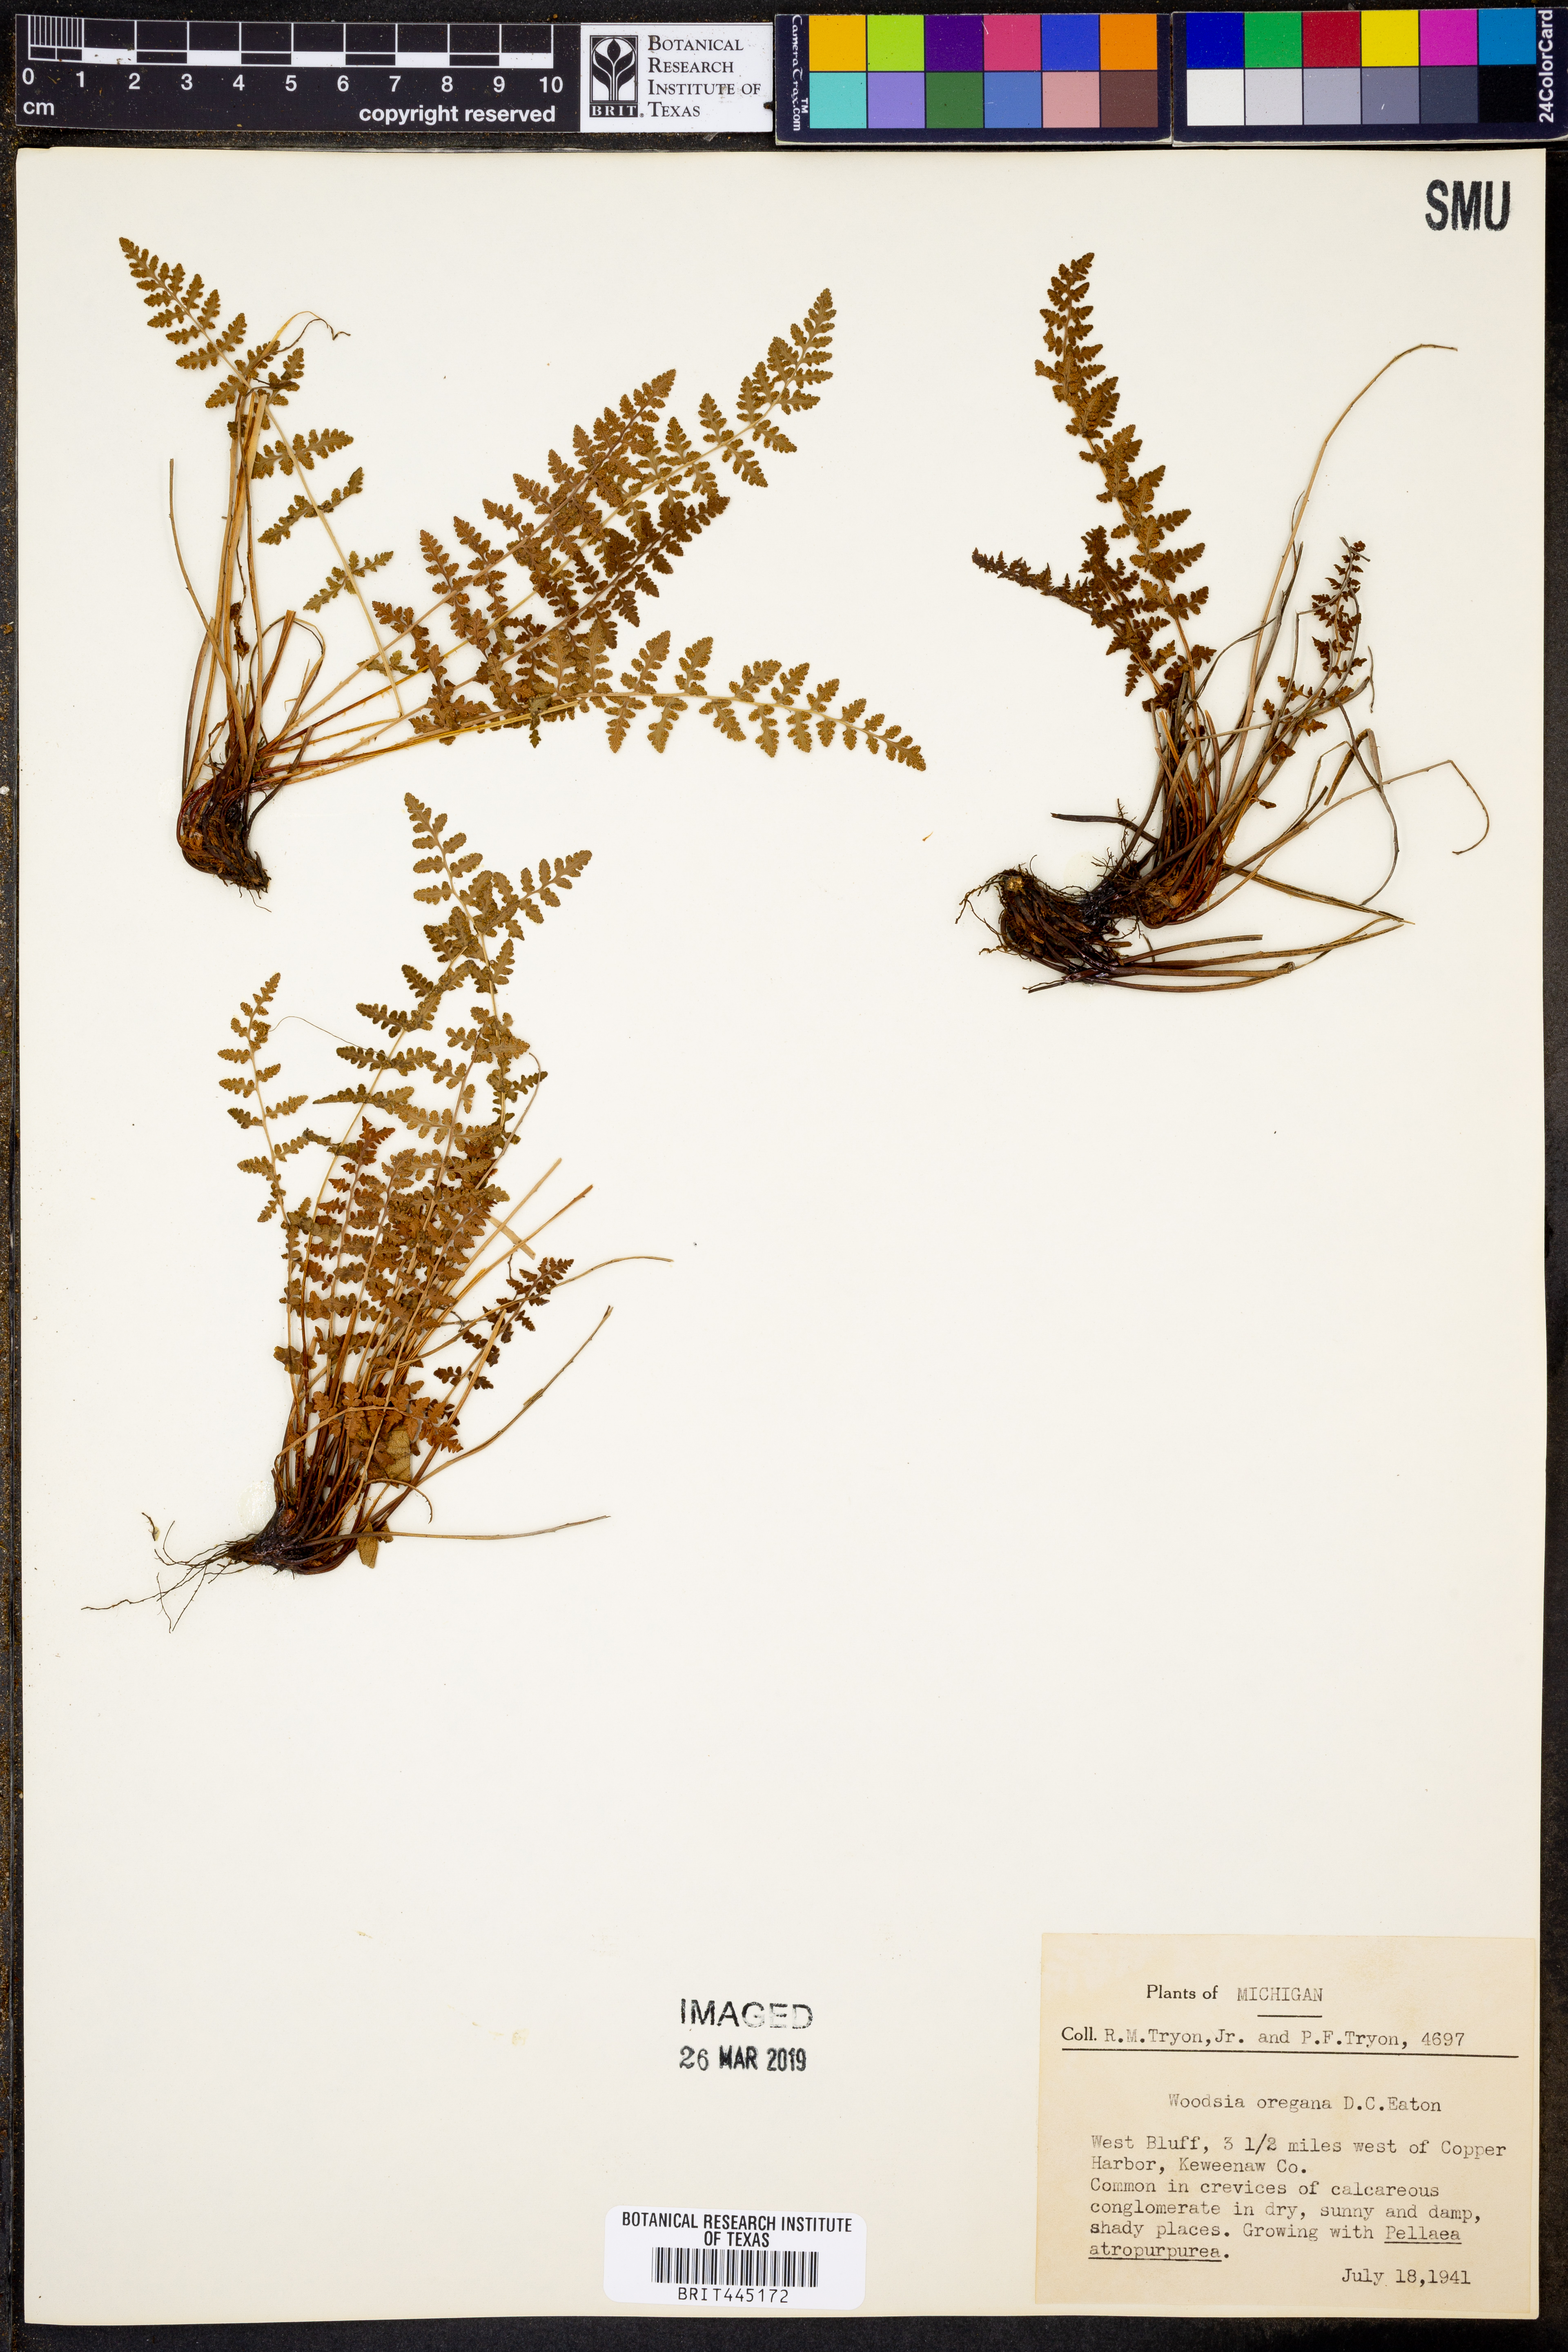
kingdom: Plantae
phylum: Tracheophyta
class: Polypodiopsida
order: Polypodiales
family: Woodsiaceae
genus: Physematium
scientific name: Physematium oreganum
